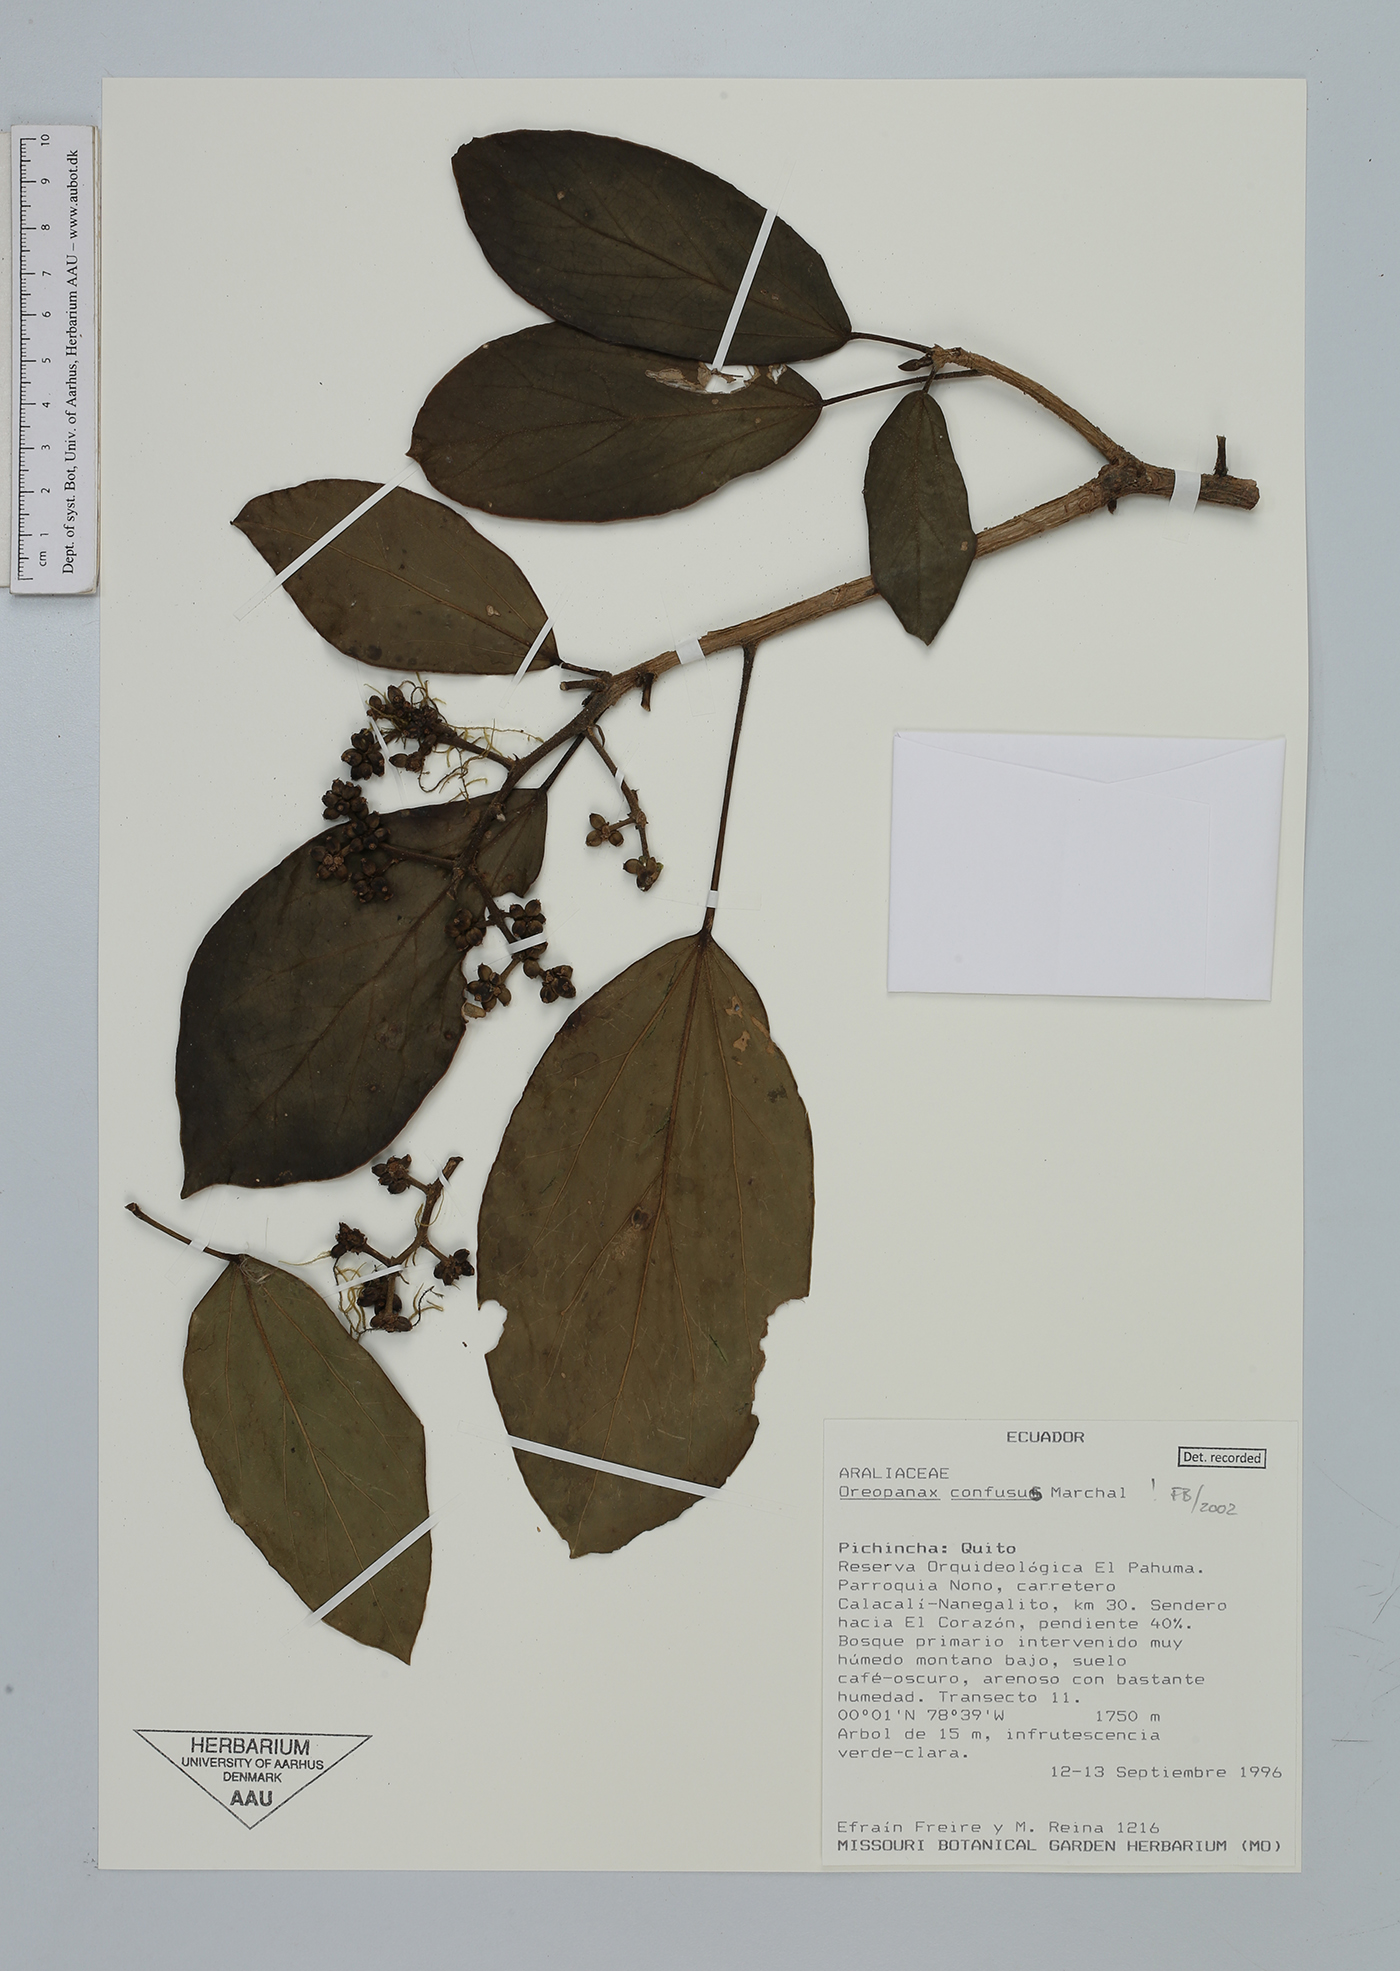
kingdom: Plantae
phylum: Tracheophyta
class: Magnoliopsida
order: Apiales
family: Araliaceae
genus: Oreopanax
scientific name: Oreopanax confusus
